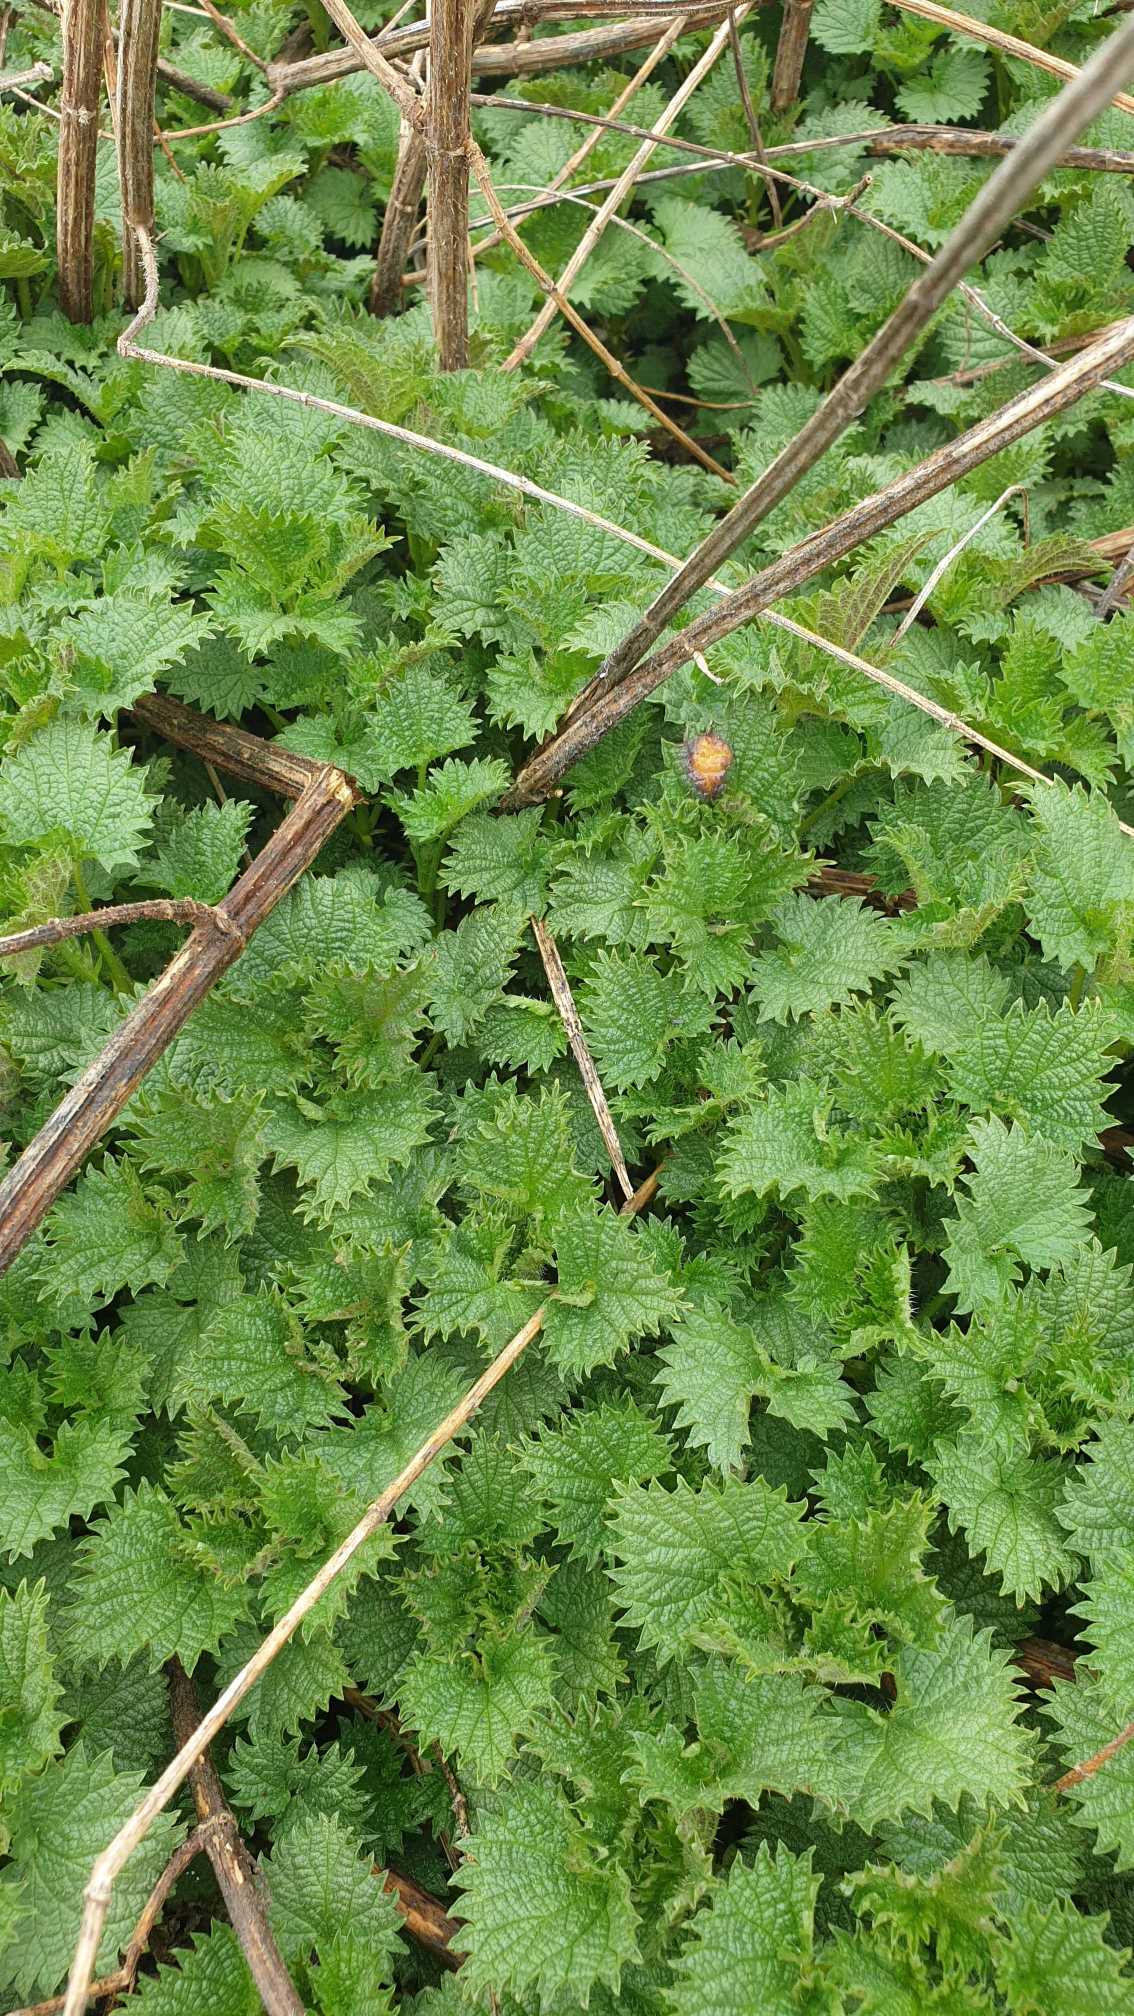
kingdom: Plantae
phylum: Tracheophyta
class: Magnoliopsida
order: Rosales
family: Urticaceae
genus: Urtica
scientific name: Urtica dioica
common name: Stor nælde
